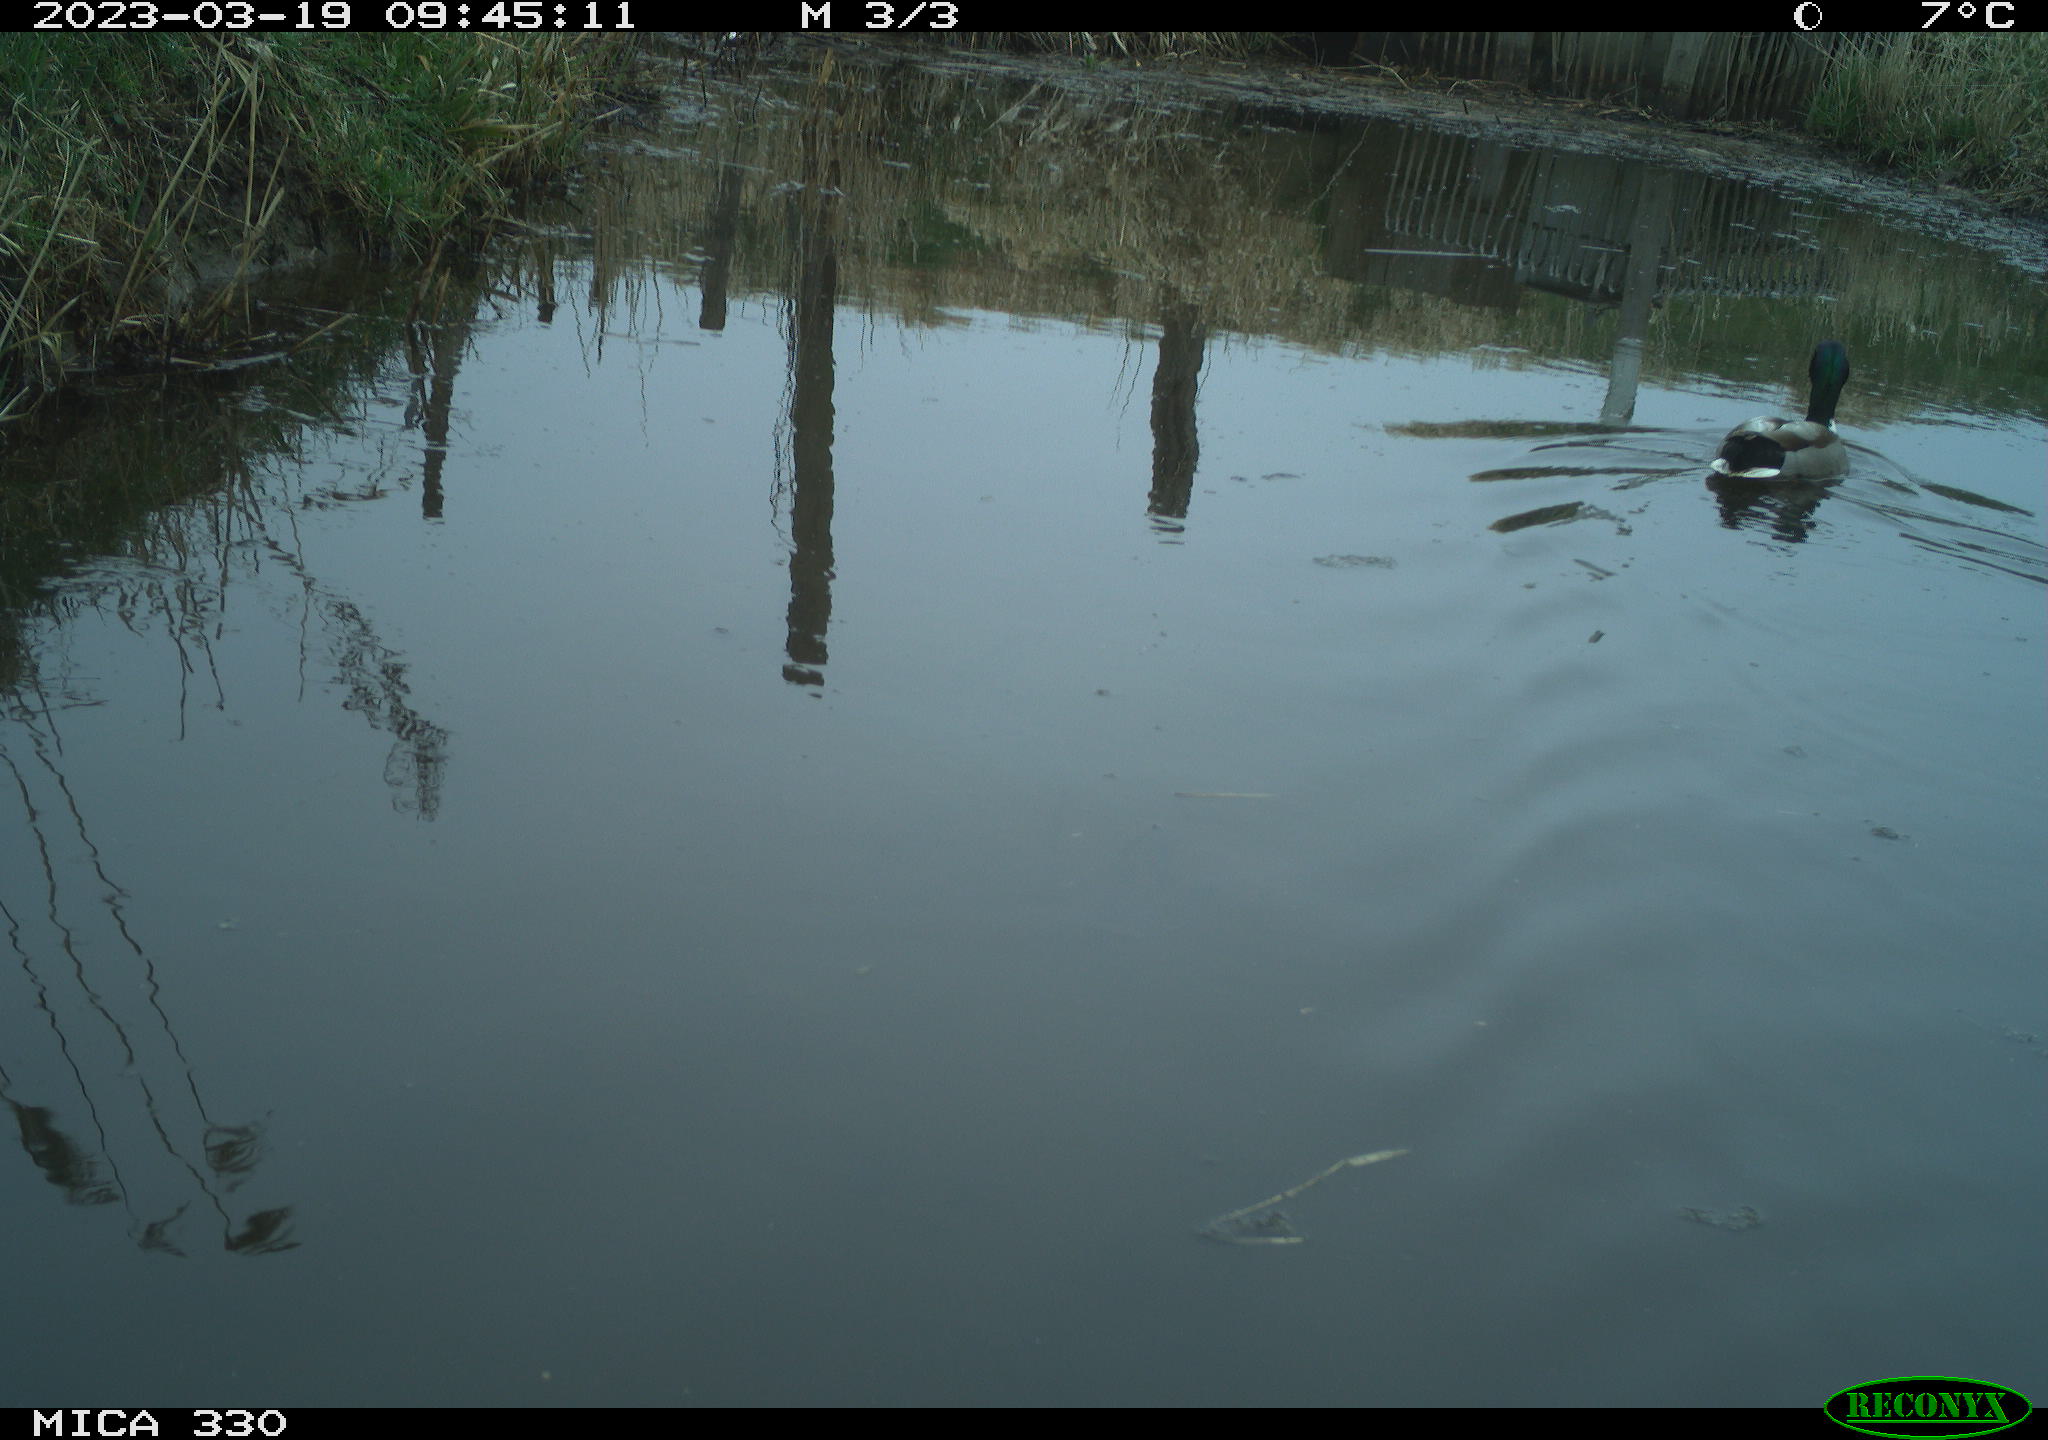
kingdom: Animalia
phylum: Chordata
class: Aves
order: Anseriformes
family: Anatidae
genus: Anas
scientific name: Anas
